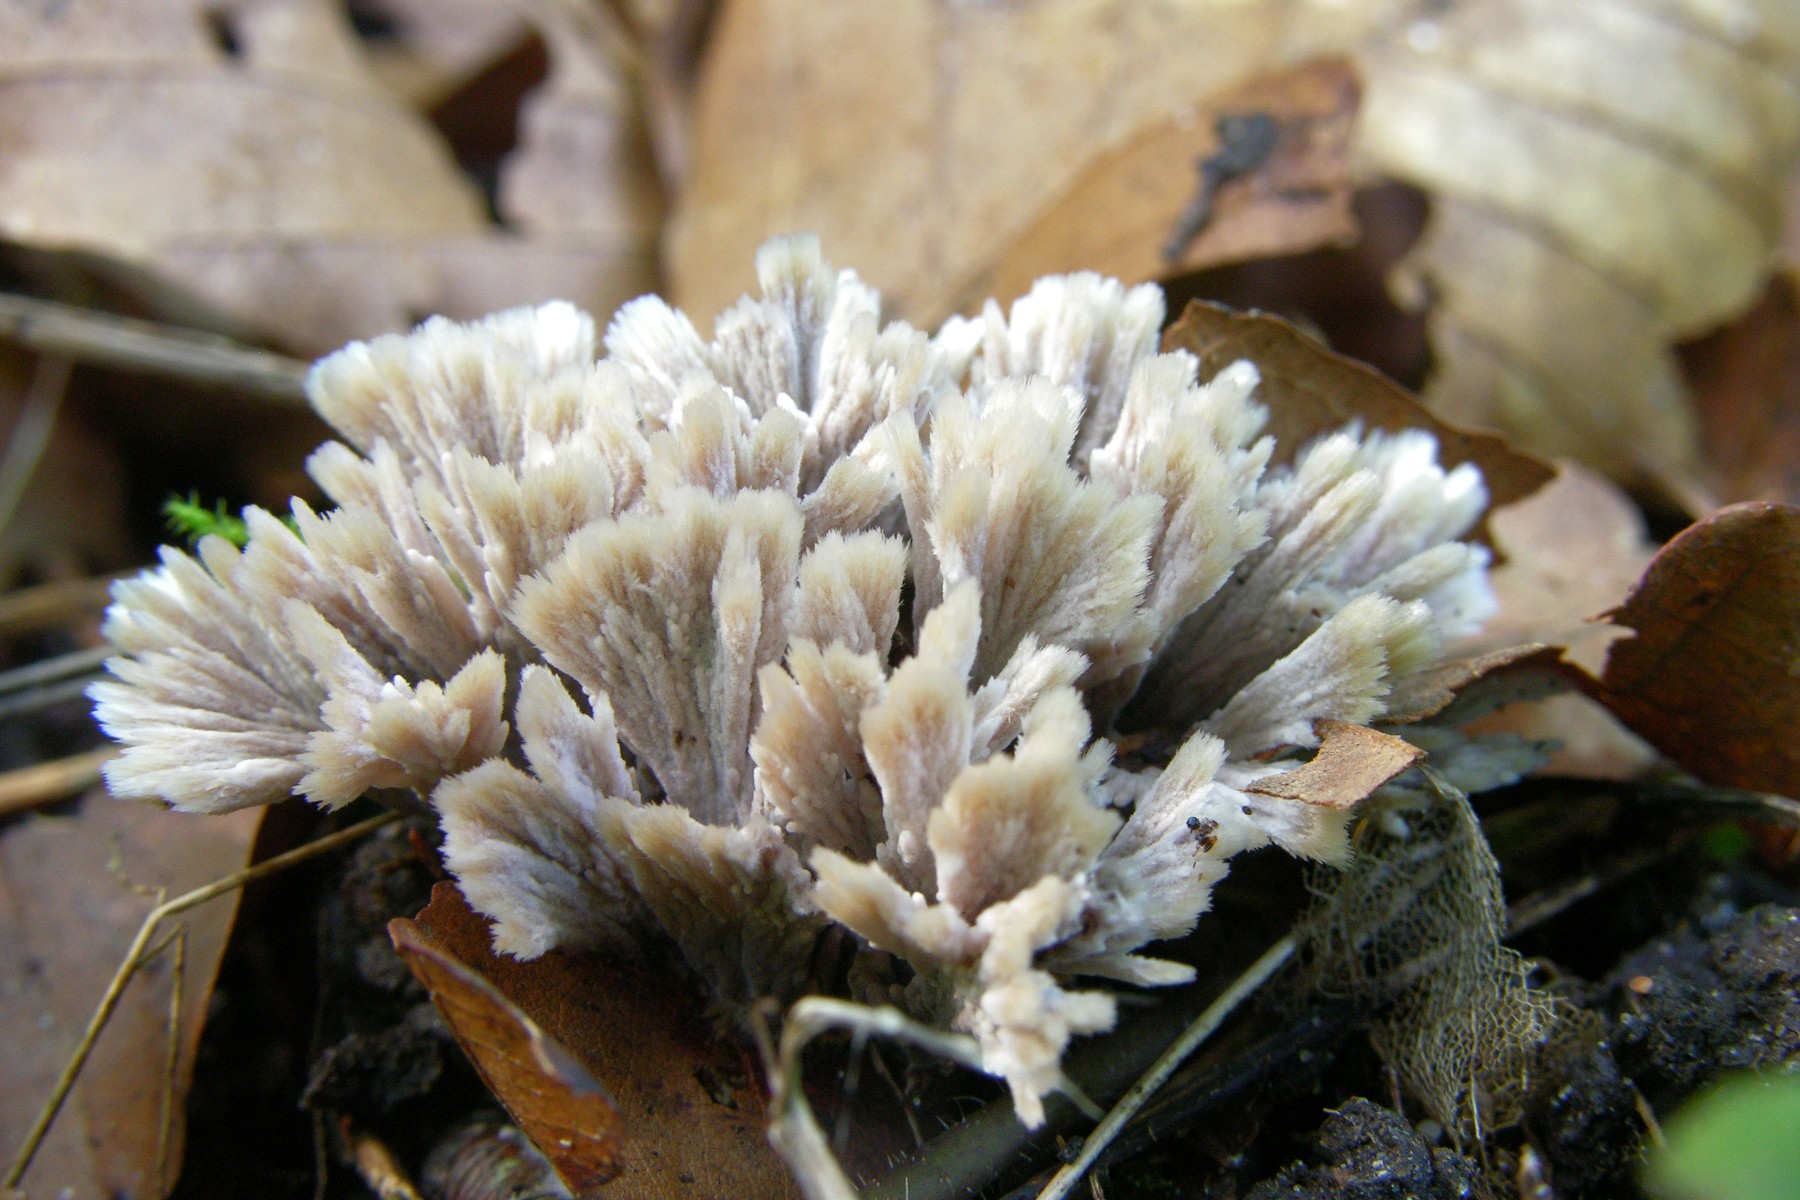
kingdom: Fungi
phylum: Basidiomycota
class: Agaricomycetes
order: Thelephorales
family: Thelephoraceae
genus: Thelephora
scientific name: Thelephora anthocephala
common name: busk-frynsesvamp
